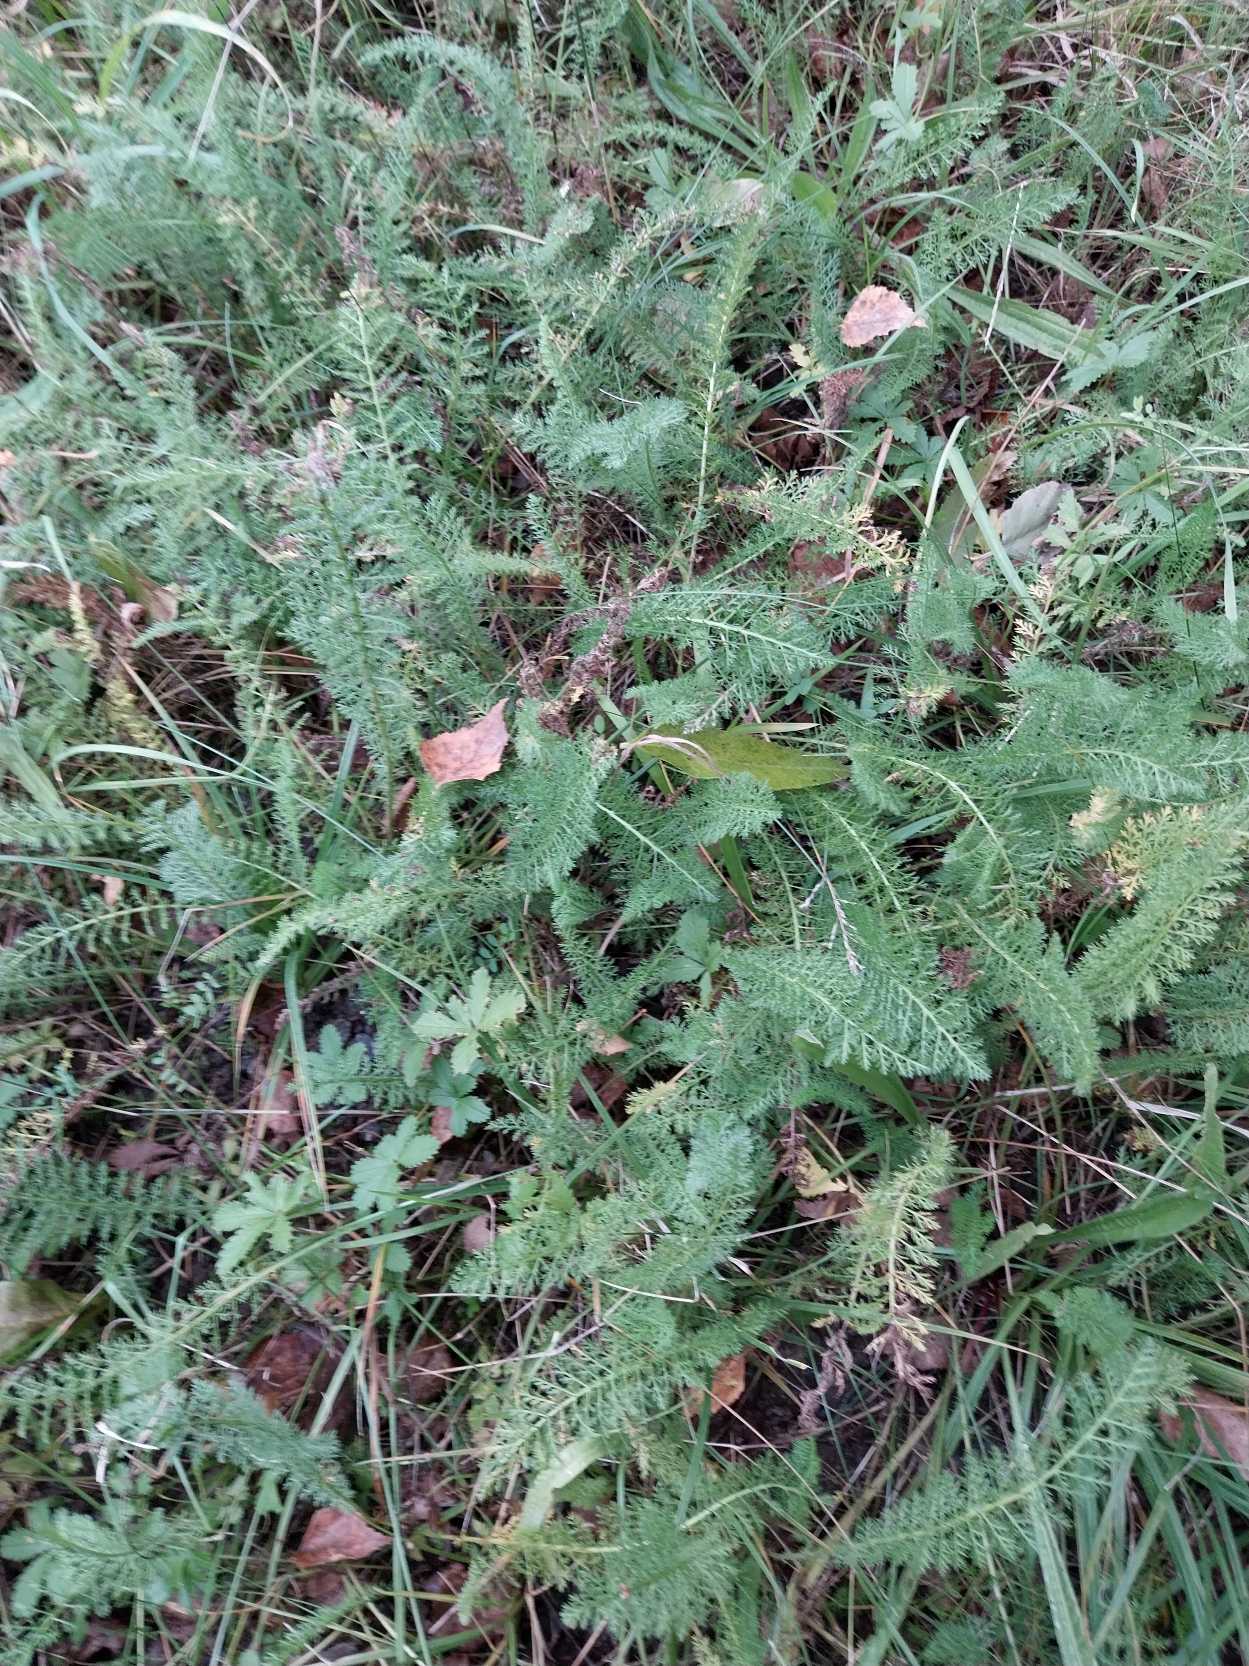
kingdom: Plantae
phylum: Tracheophyta
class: Magnoliopsida
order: Asterales
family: Asteraceae
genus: Achillea
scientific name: Achillea millefolium
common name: Almindelig røllike
